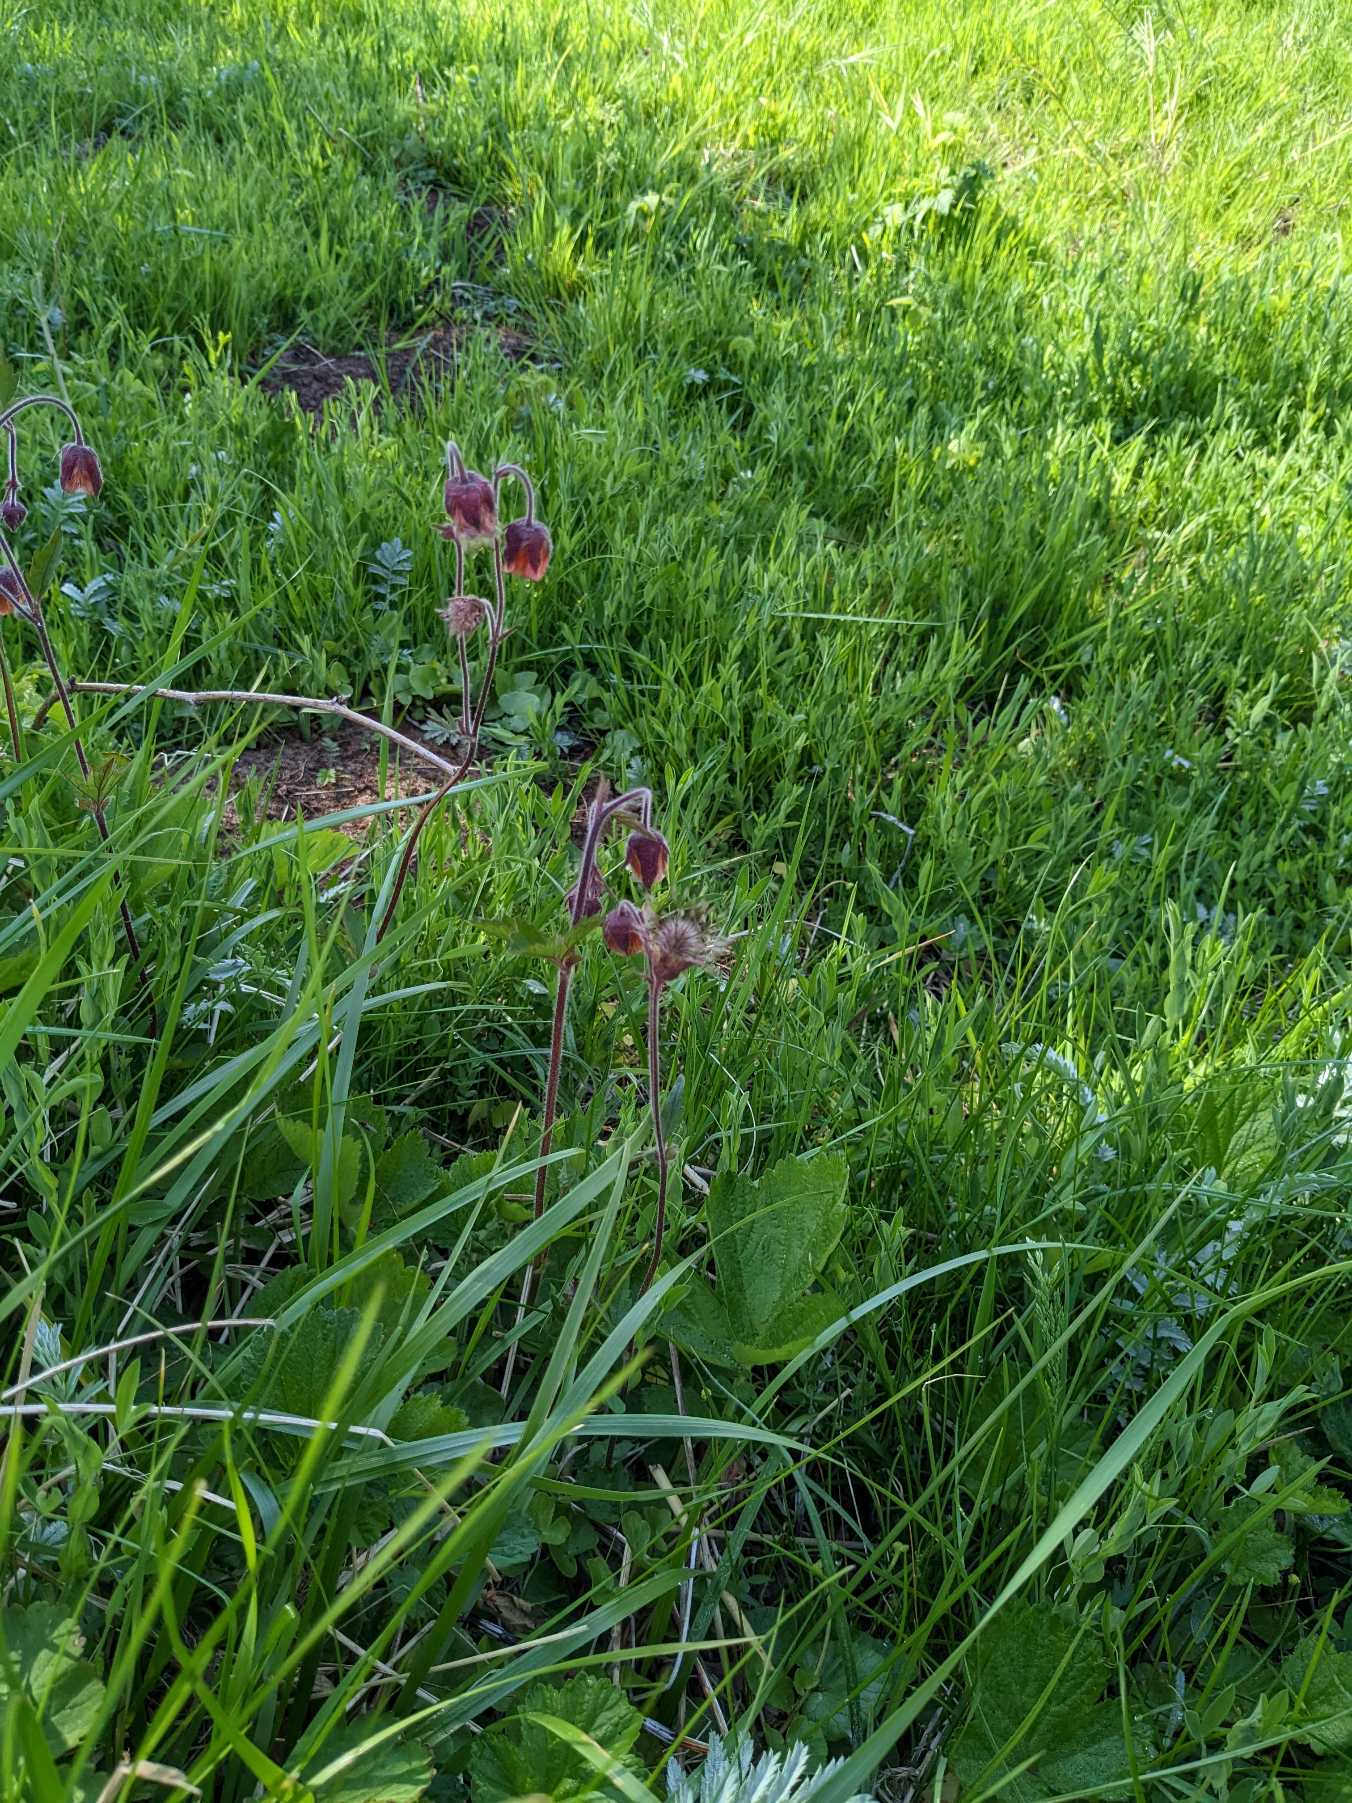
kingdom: Plantae
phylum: Tracheophyta
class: Magnoliopsida
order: Rosales
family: Rosaceae
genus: Geum
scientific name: Geum rivale
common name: Eng-nellikerod
